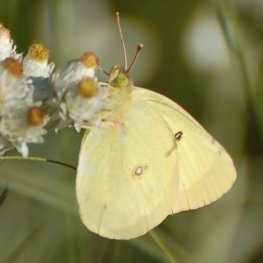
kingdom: Animalia
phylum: Arthropoda
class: Insecta
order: Lepidoptera
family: Pieridae
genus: Colias
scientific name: Colias philodice
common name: Clouded Sulphur
